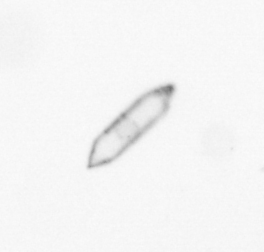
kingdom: Chromista
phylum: Ochrophyta
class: Bacillariophyceae
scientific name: Bacillariophyceae
